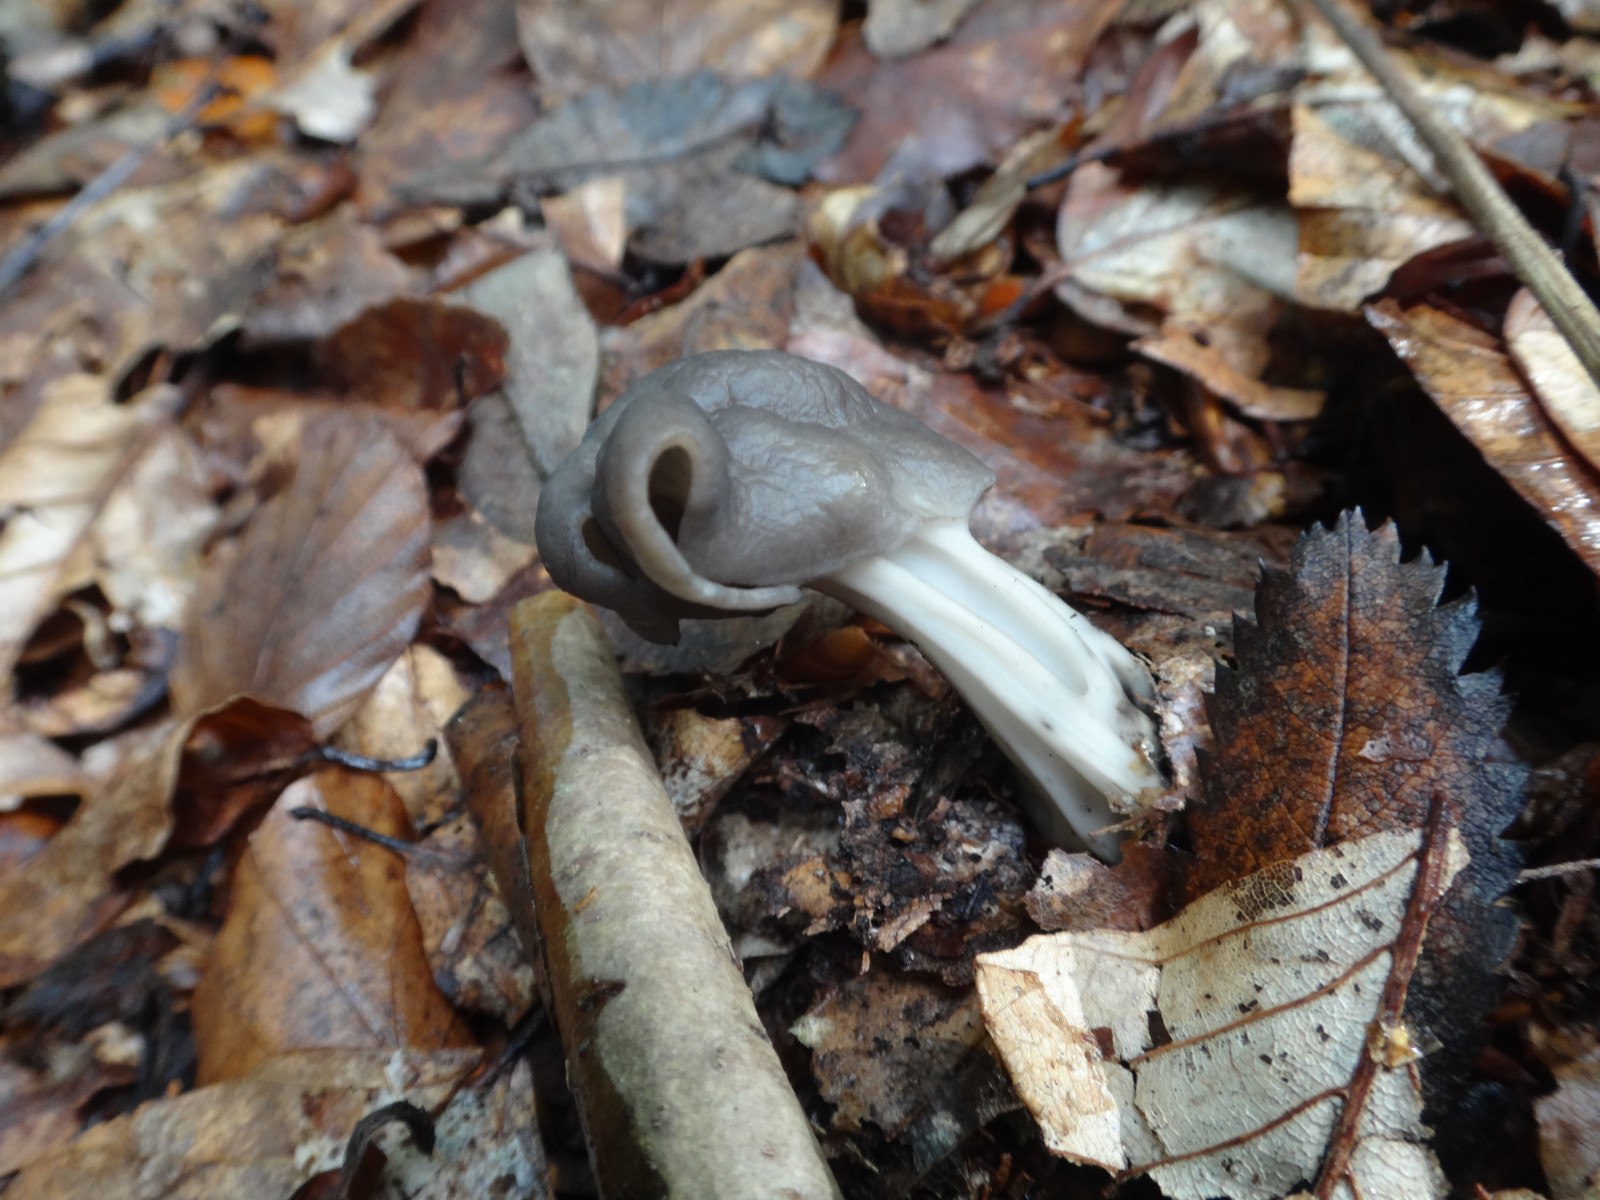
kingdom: Fungi
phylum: Ascomycota
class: Pezizomycetes
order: Pezizales
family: Helvellaceae
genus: Helvella
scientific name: Helvella lacunosa
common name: grubet foldhat
